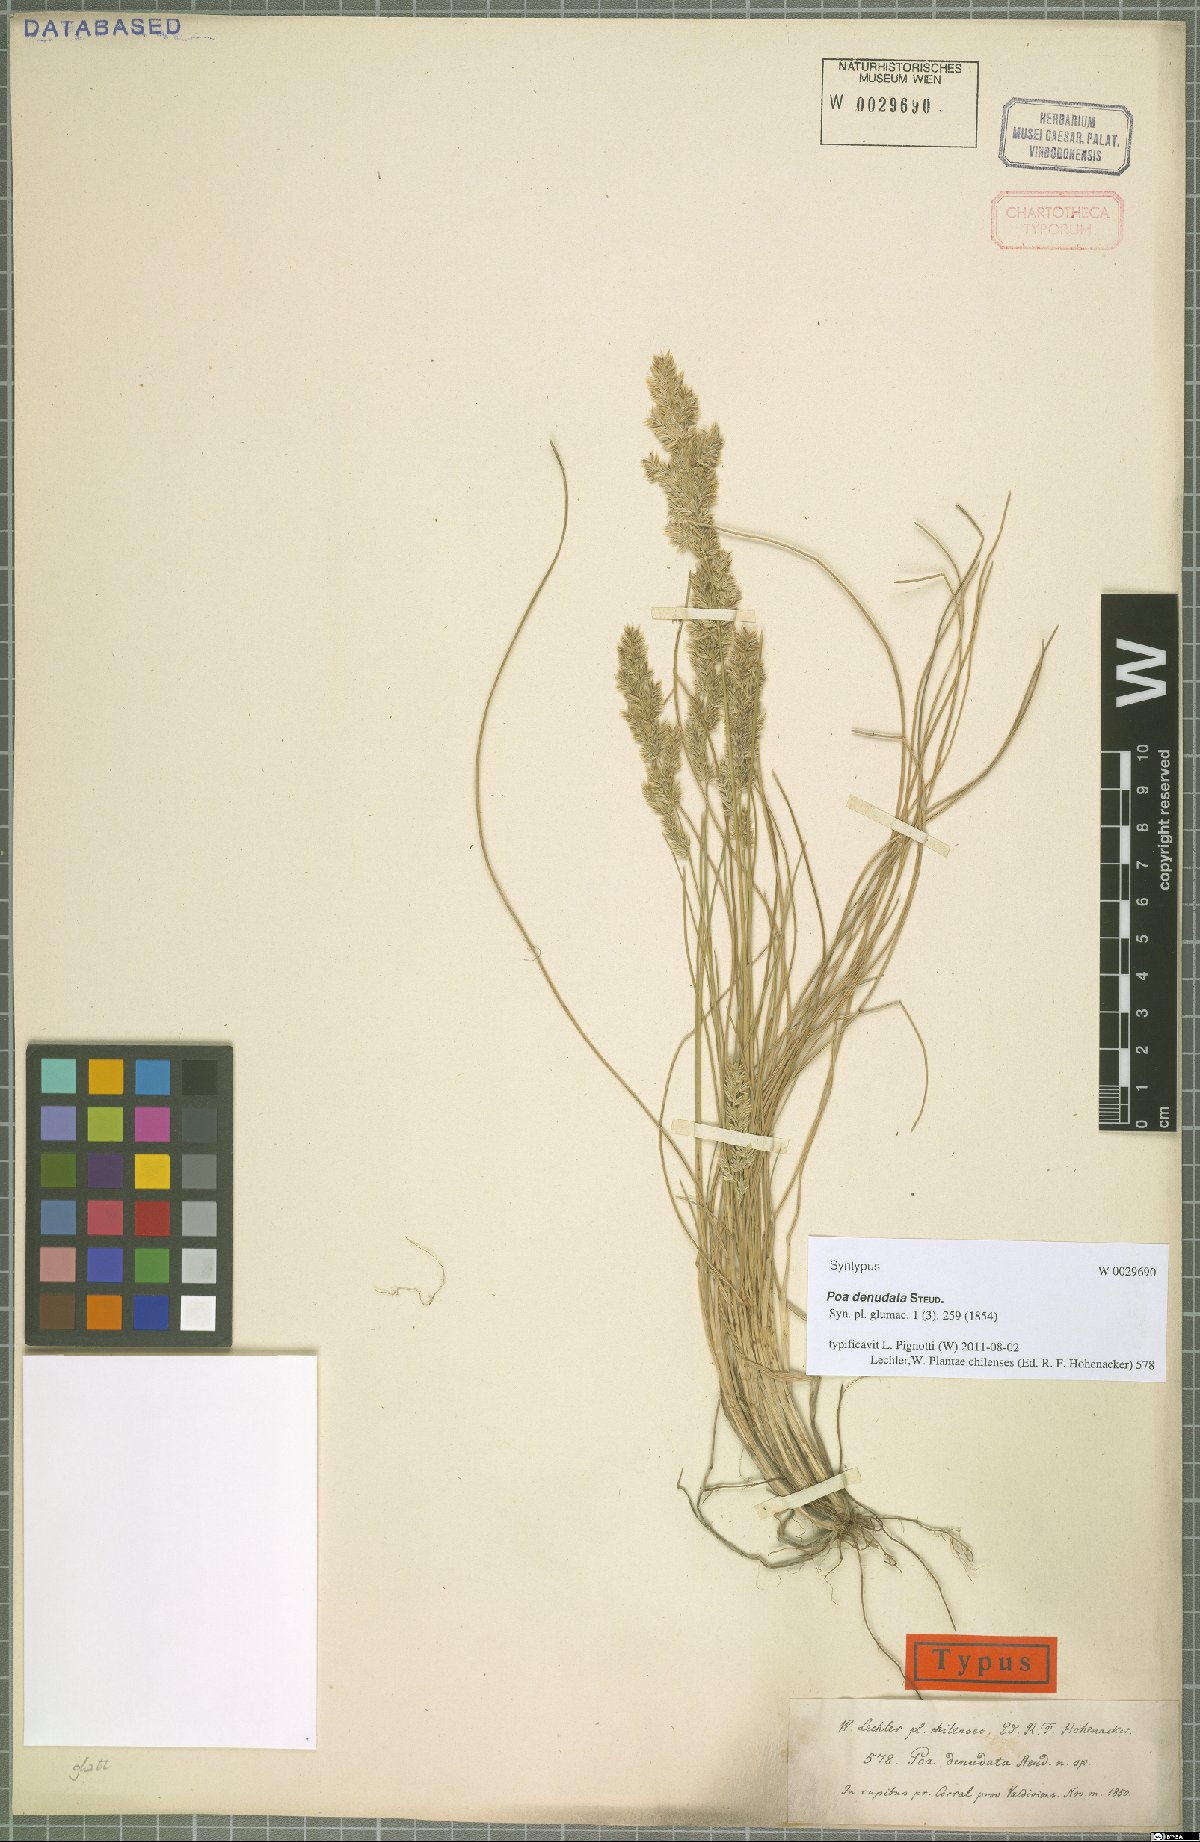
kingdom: Plantae
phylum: Tracheophyta
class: Liliopsida
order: Poales
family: Poaceae
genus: Poa
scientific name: Poa denudata
